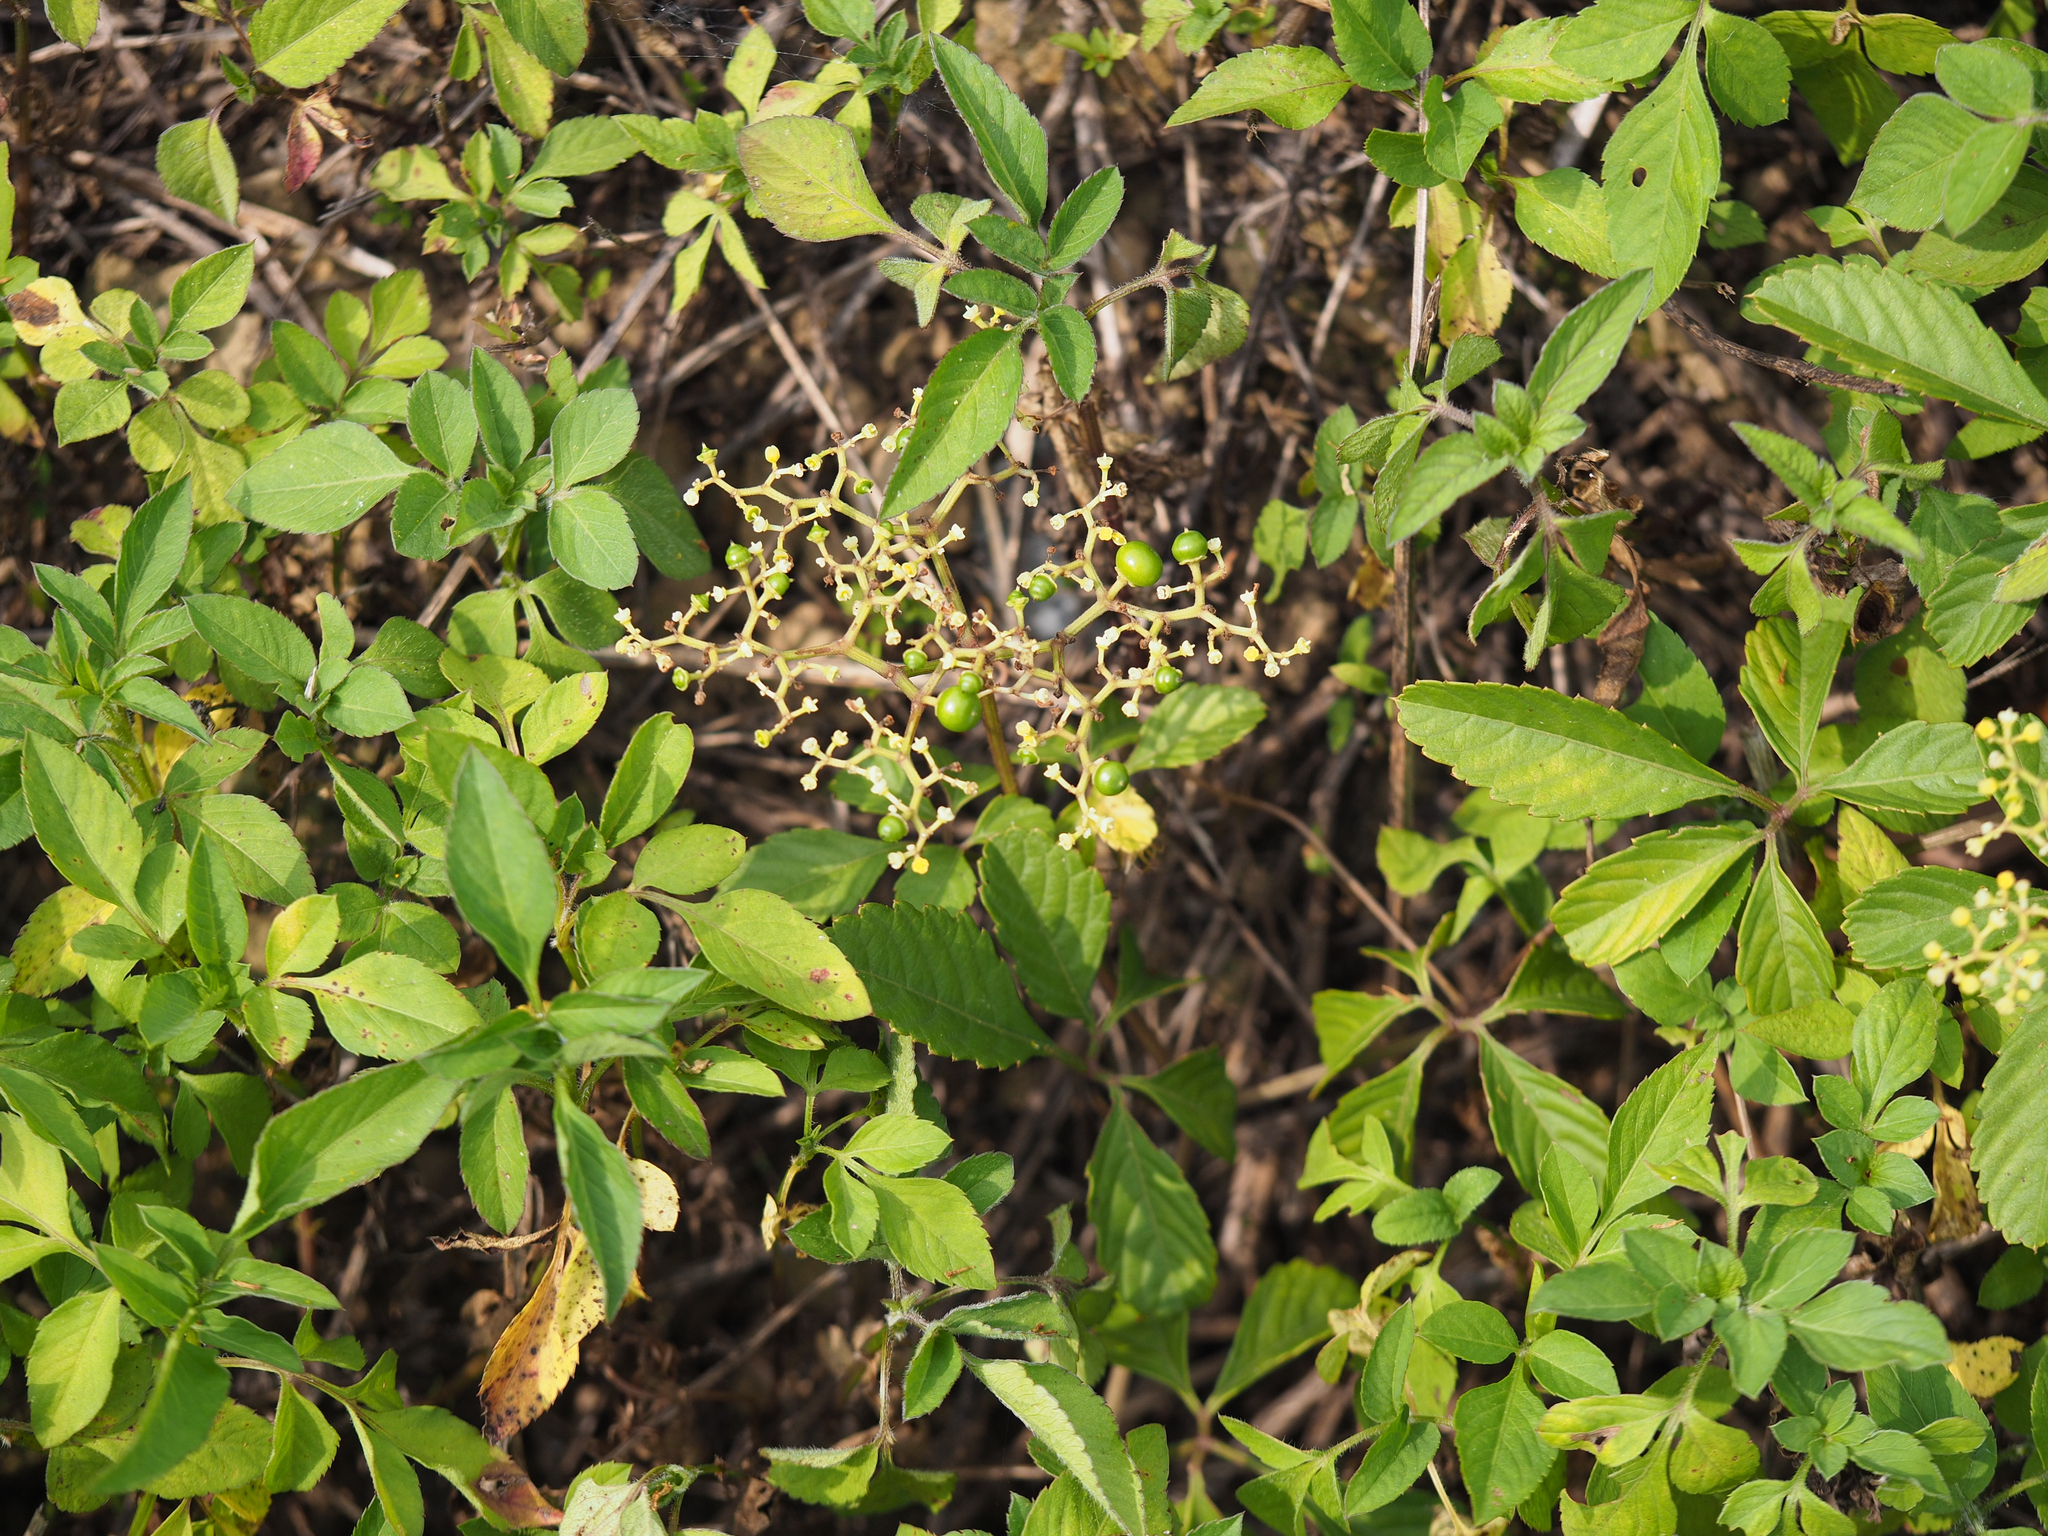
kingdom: Plantae
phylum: Tracheophyta
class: Magnoliopsida
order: Vitales
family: Vitaceae
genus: Causonis
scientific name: Causonis japonica
